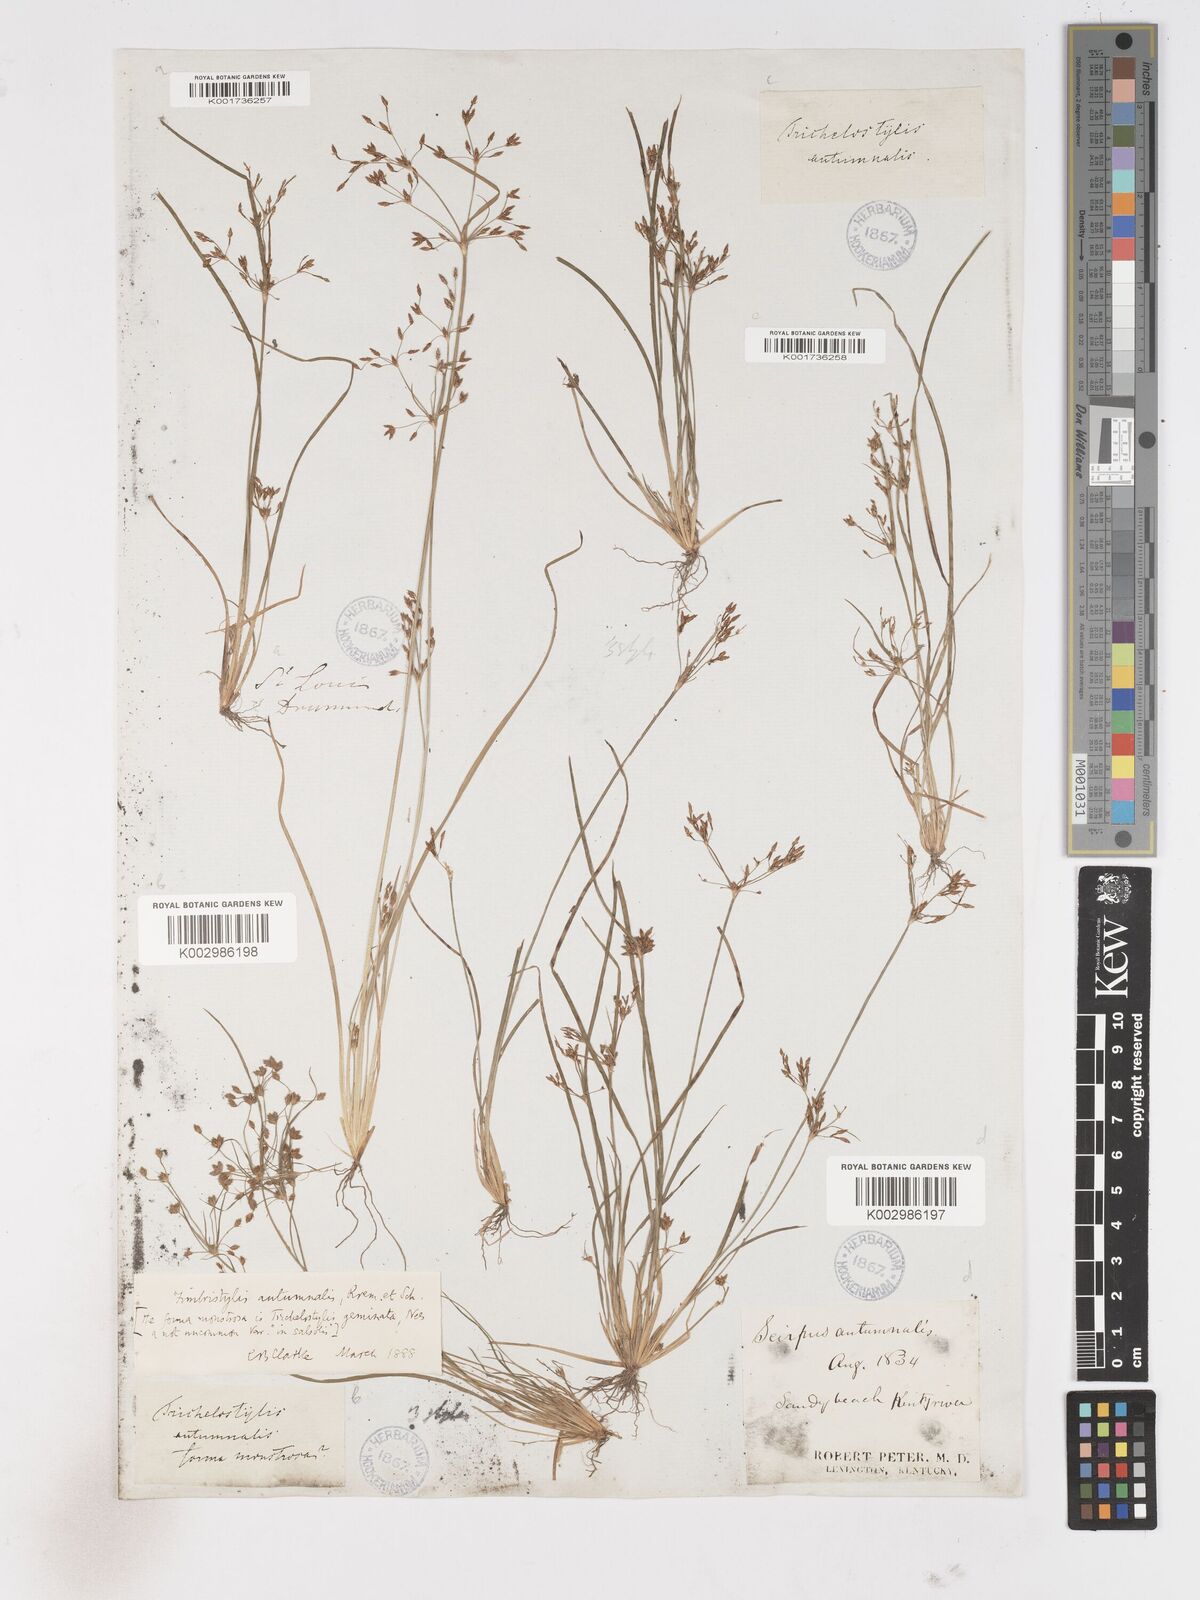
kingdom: Plantae
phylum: Tracheophyta
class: Liliopsida
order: Poales
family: Cyperaceae
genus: Fimbristylis
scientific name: Fimbristylis autumnalis
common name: Slender fimbristylis
